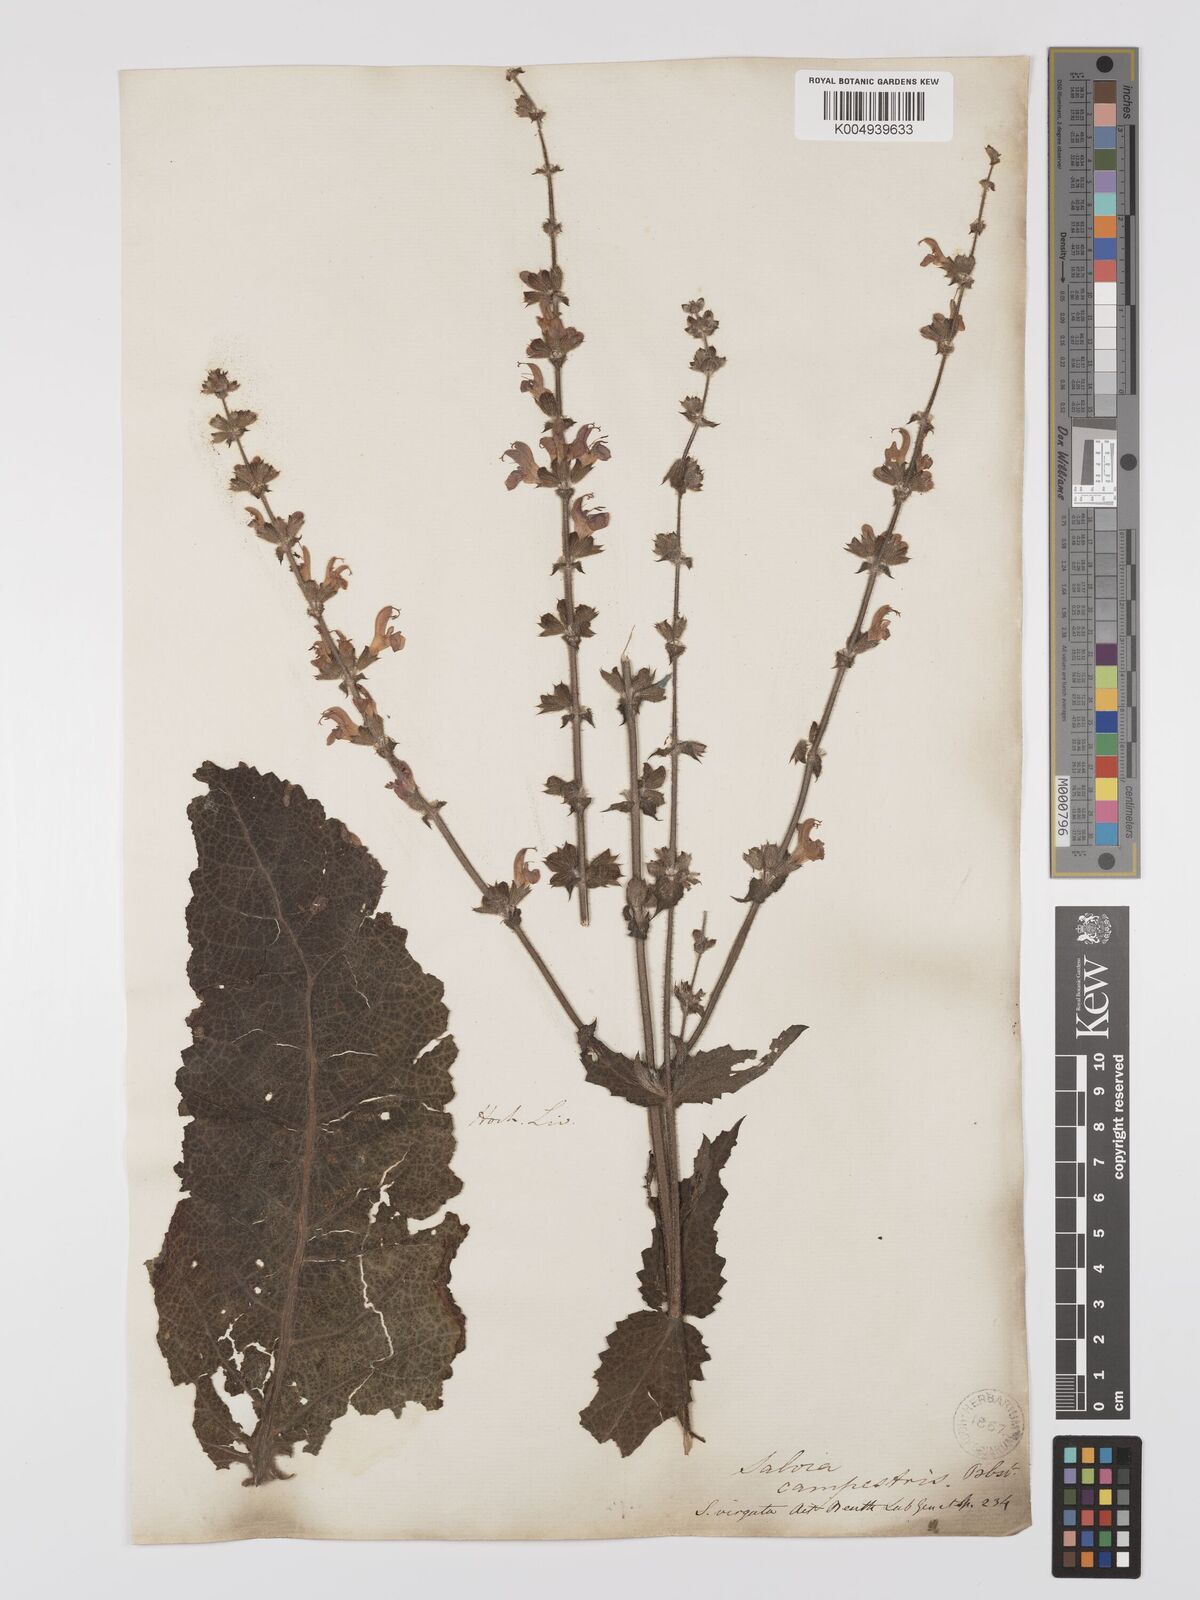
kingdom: Plantae
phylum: Tracheophyta
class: Magnoliopsida
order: Lamiales
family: Lamiaceae
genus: Salvia
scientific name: Salvia
